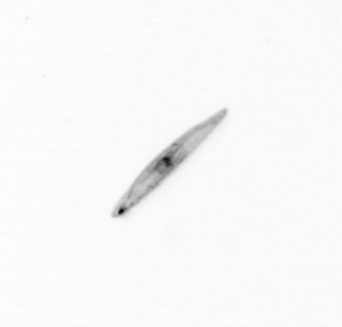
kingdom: Chromista
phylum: Ochrophyta
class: Bacillariophyceae
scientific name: Bacillariophyceae
